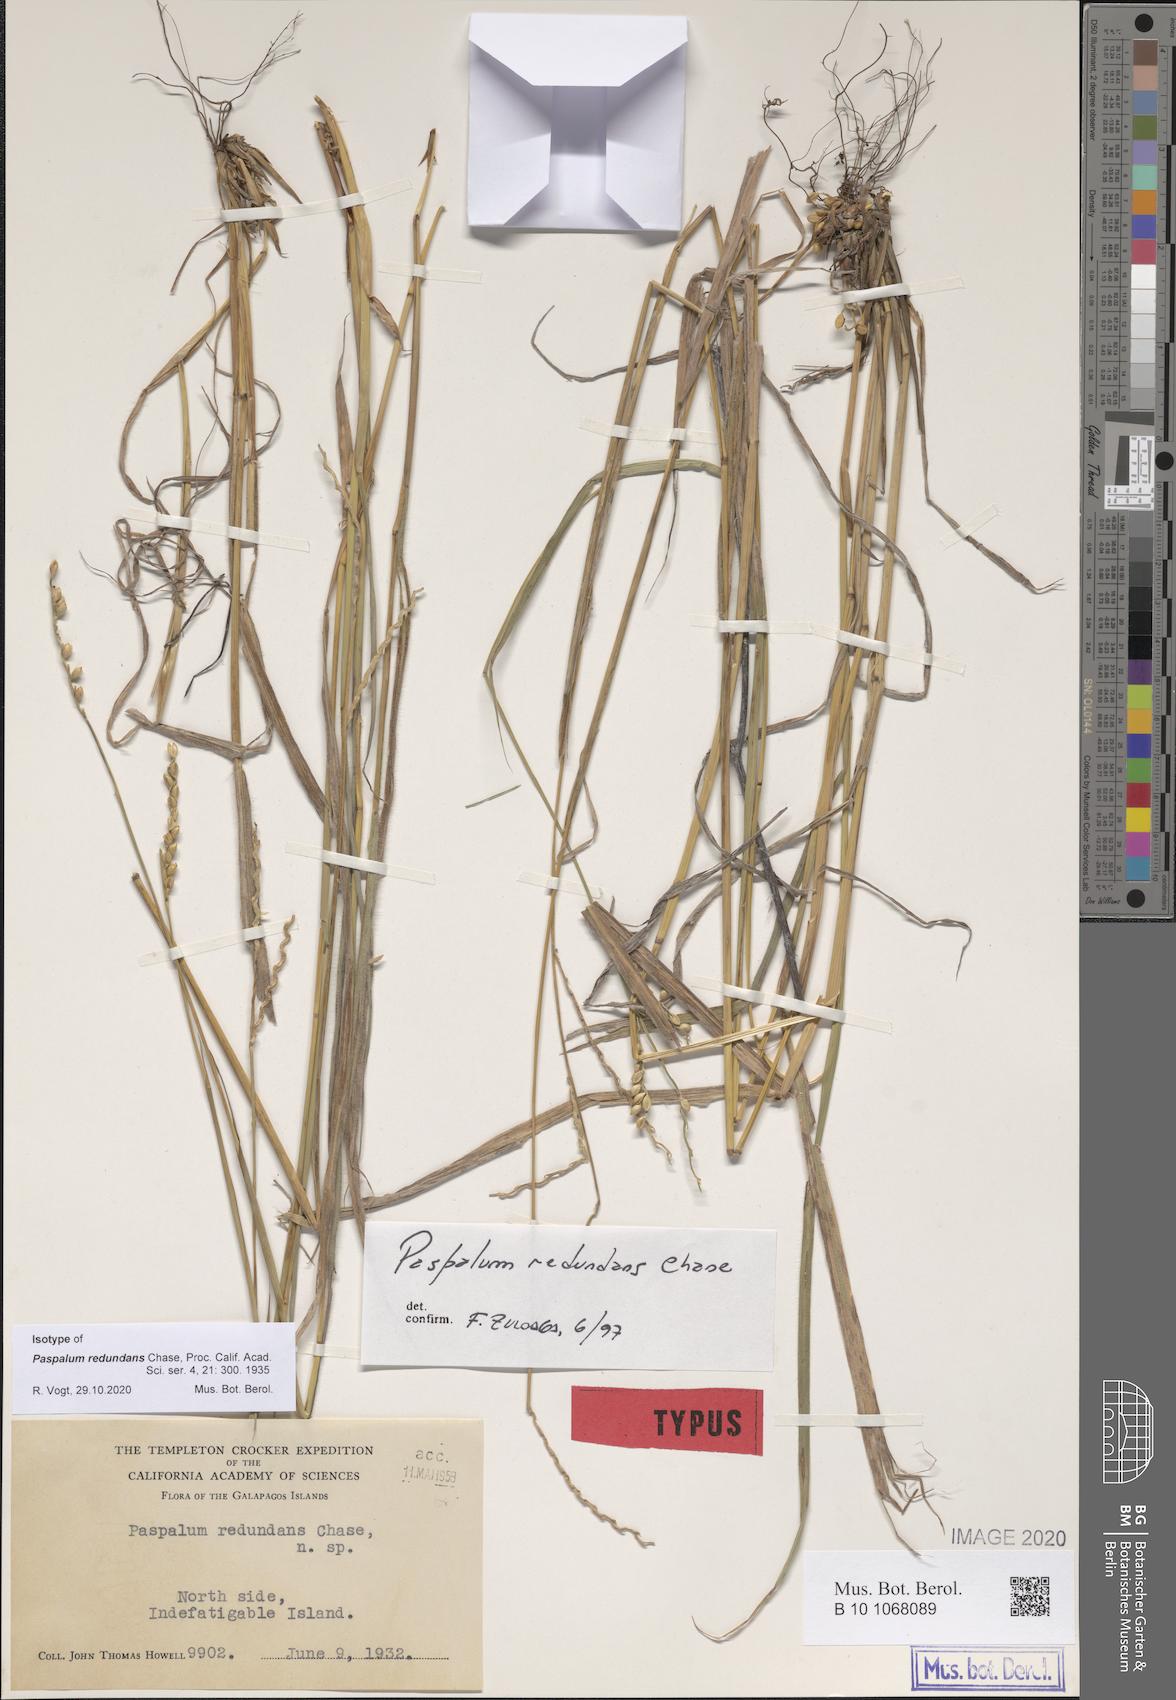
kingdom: Plantae
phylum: Tracheophyta
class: Liliopsida
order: Poales
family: Poaceae
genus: Paspalum
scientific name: Paspalum redundans
